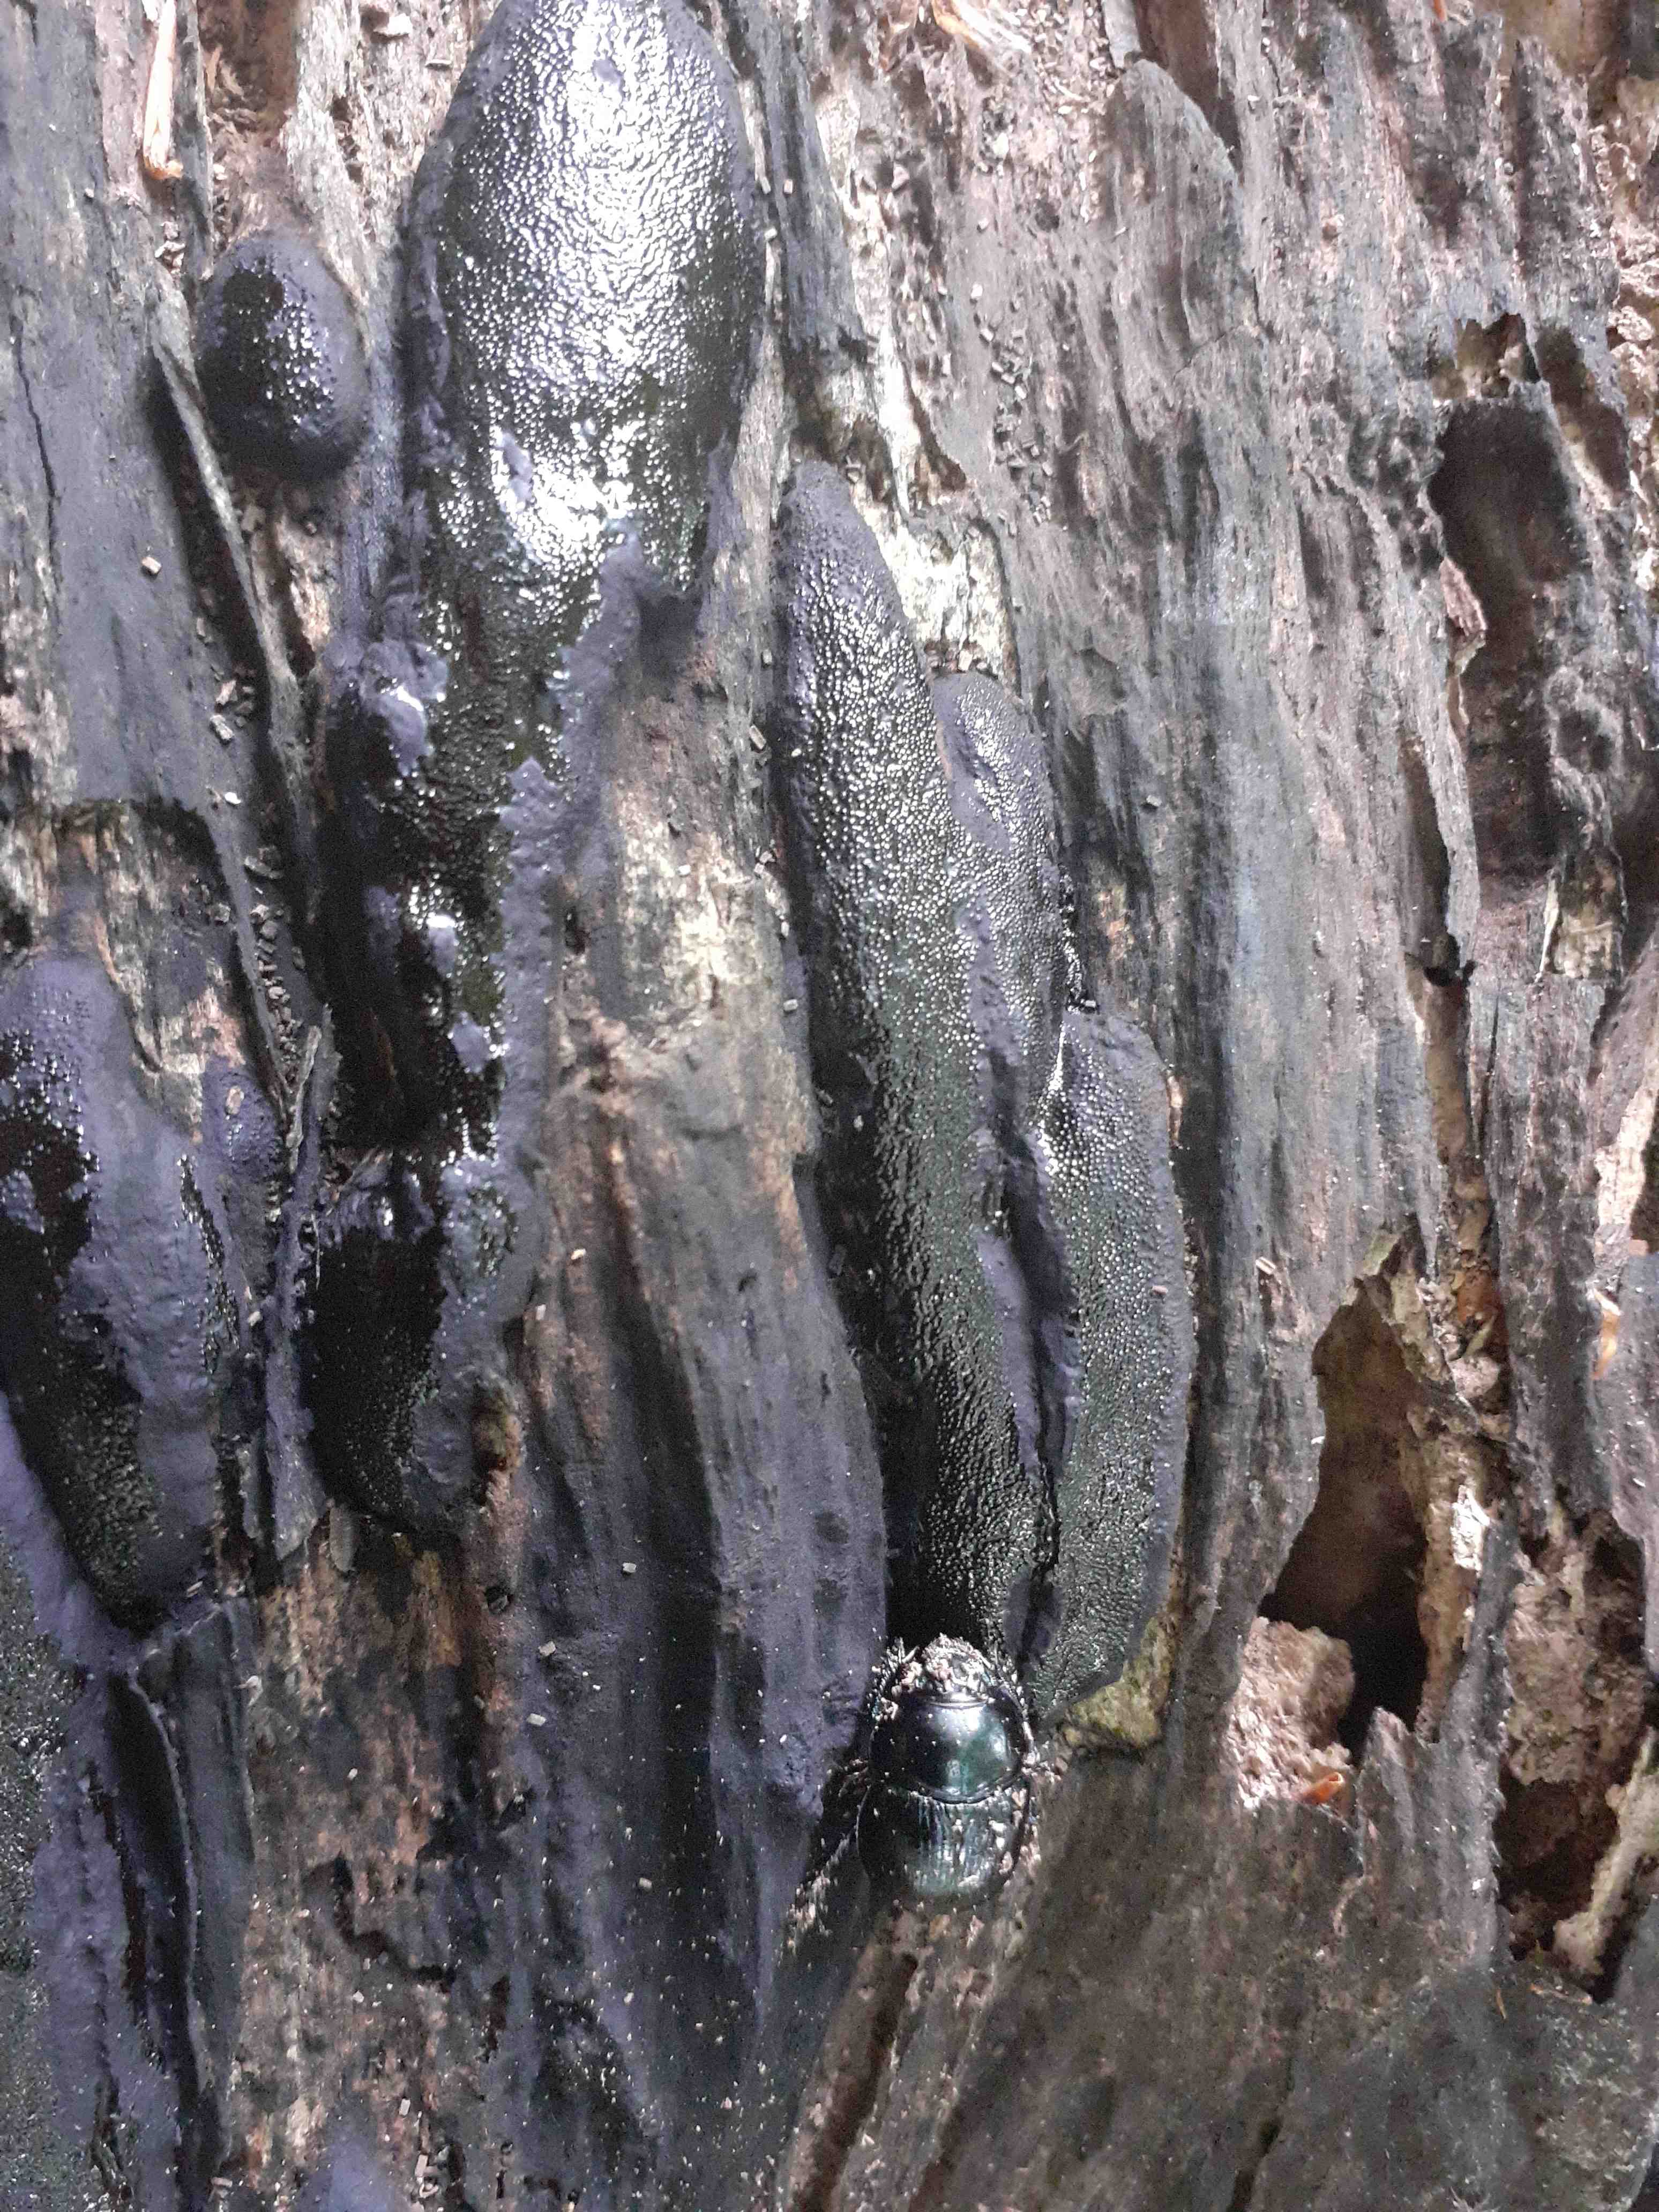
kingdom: Fungi
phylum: Ascomycota
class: Sordariomycetes
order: Boliniales
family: Boliniaceae
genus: Camarops
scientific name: Camarops tubulina
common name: knudret kulsnegl
